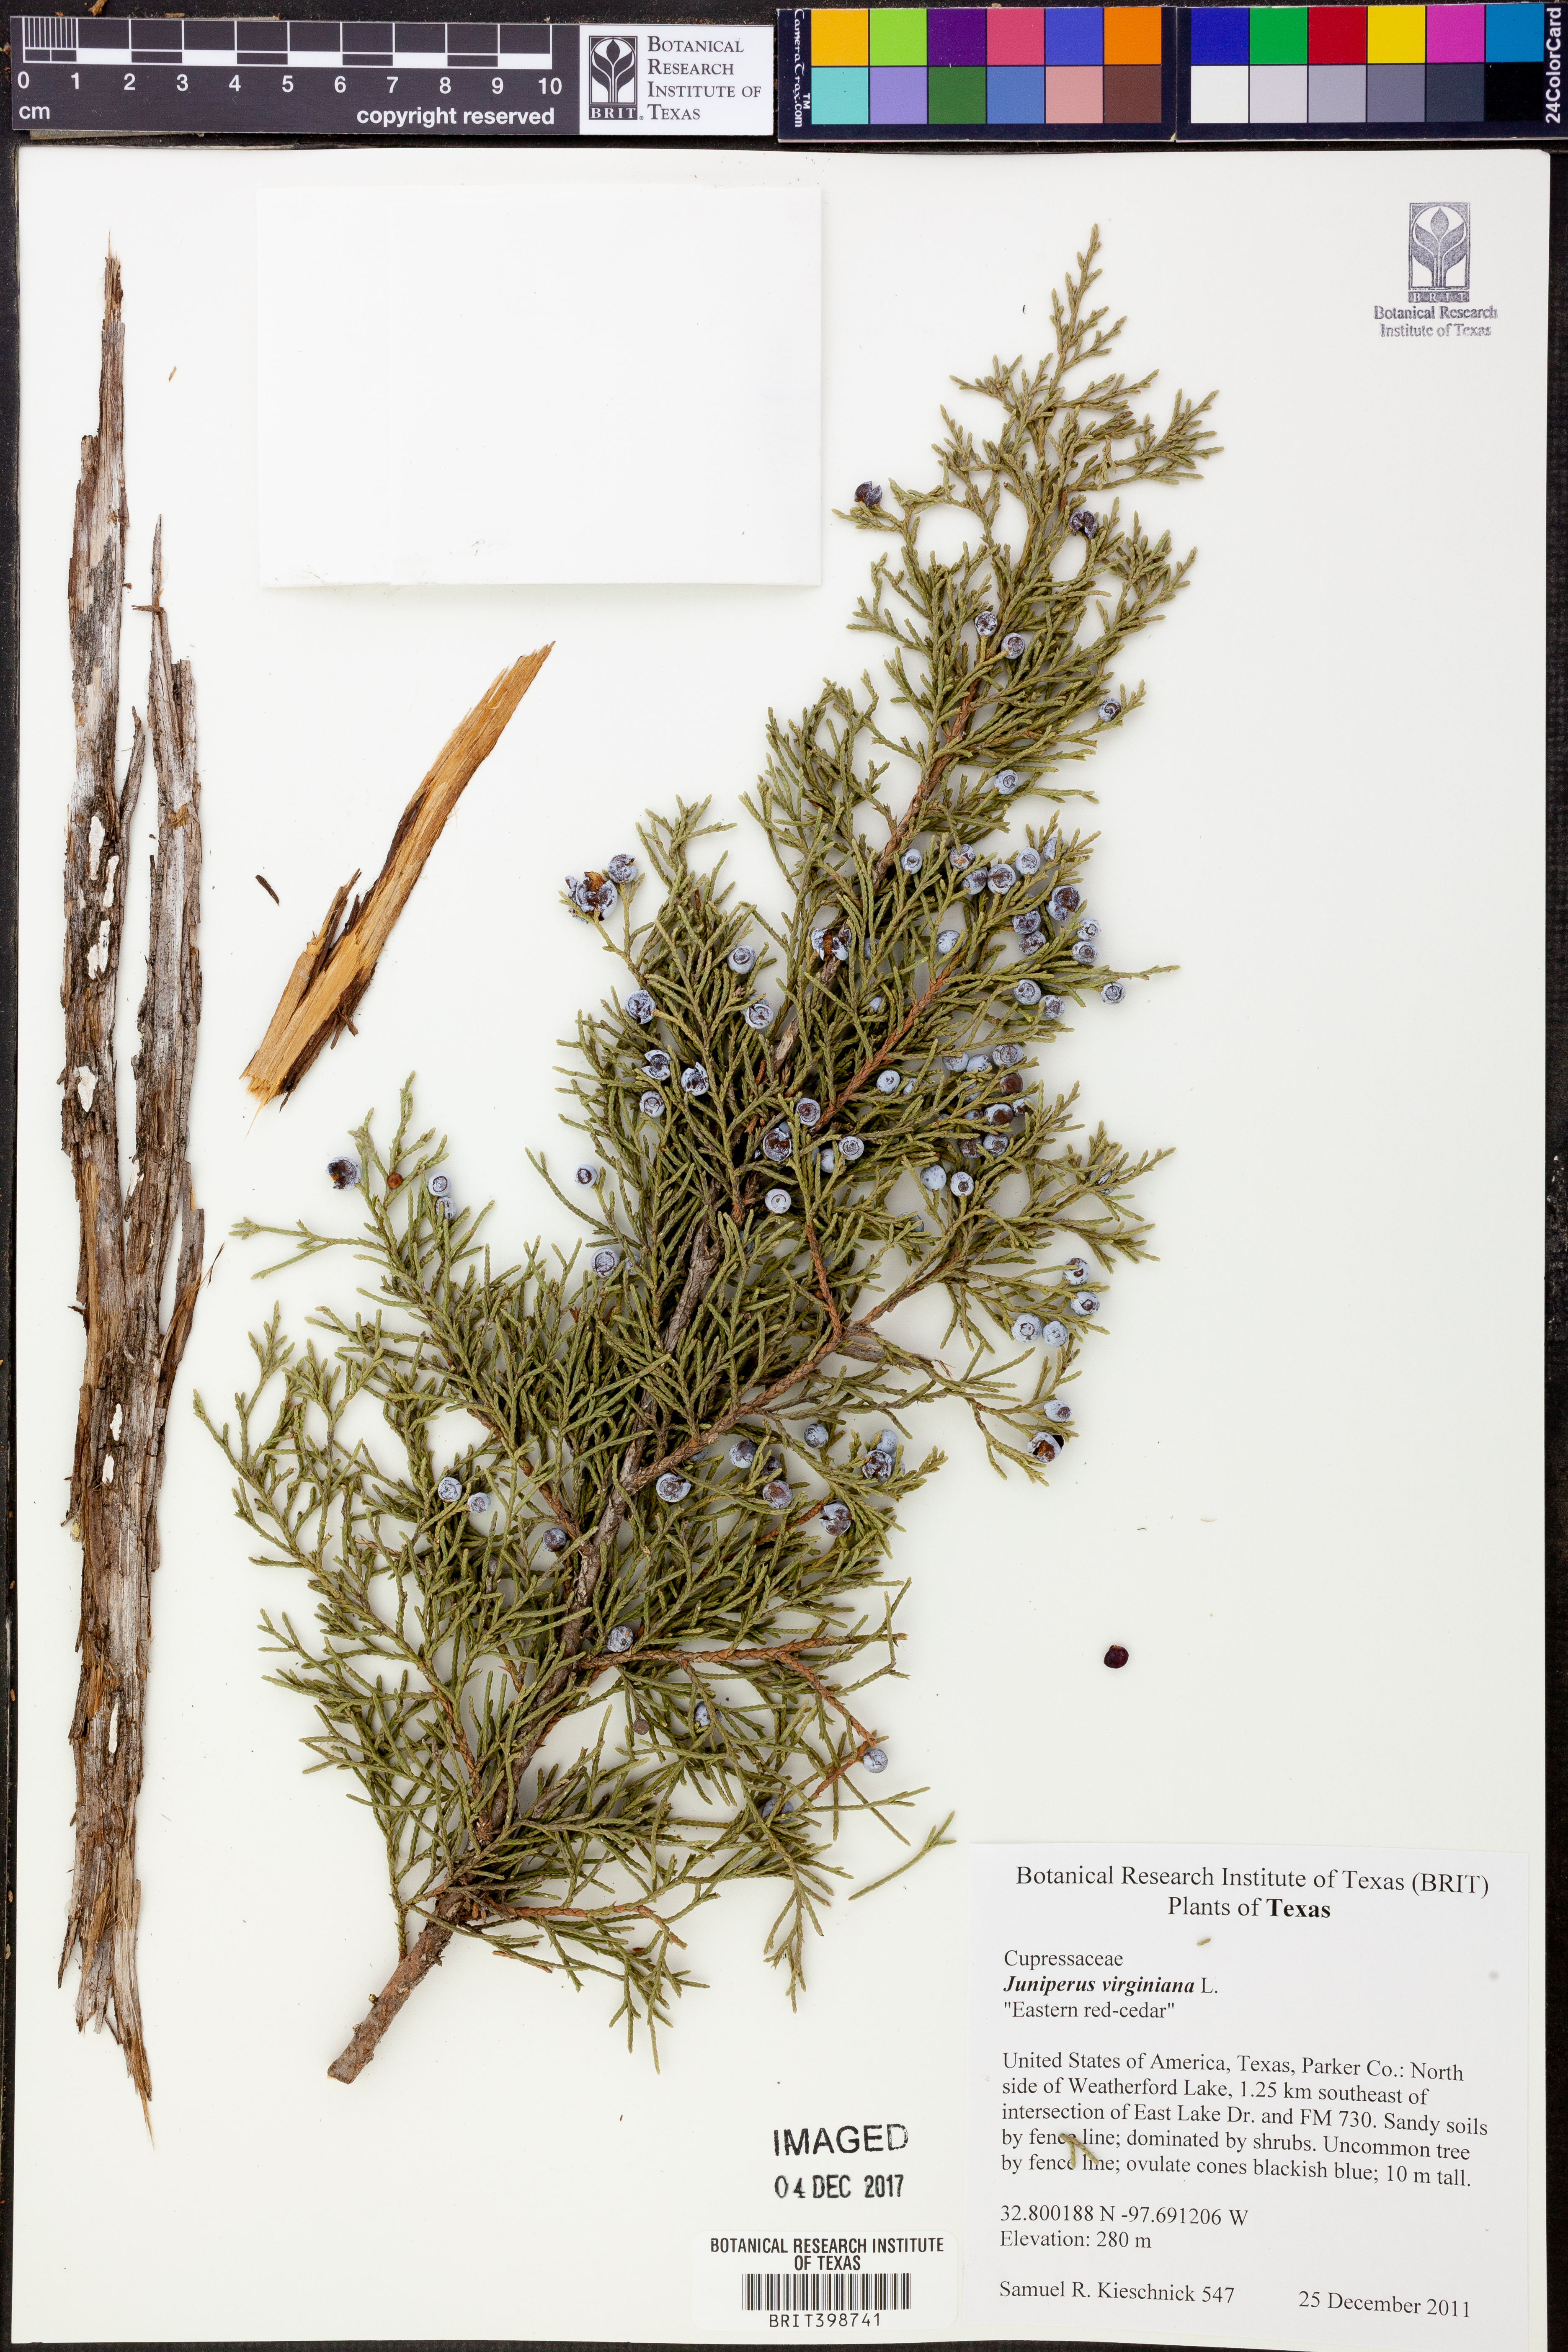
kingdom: Plantae
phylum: Tracheophyta
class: Pinopsida
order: Pinales
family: Cupressaceae
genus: Juniperus
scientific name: Juniperus virginiana
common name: Red juniper
